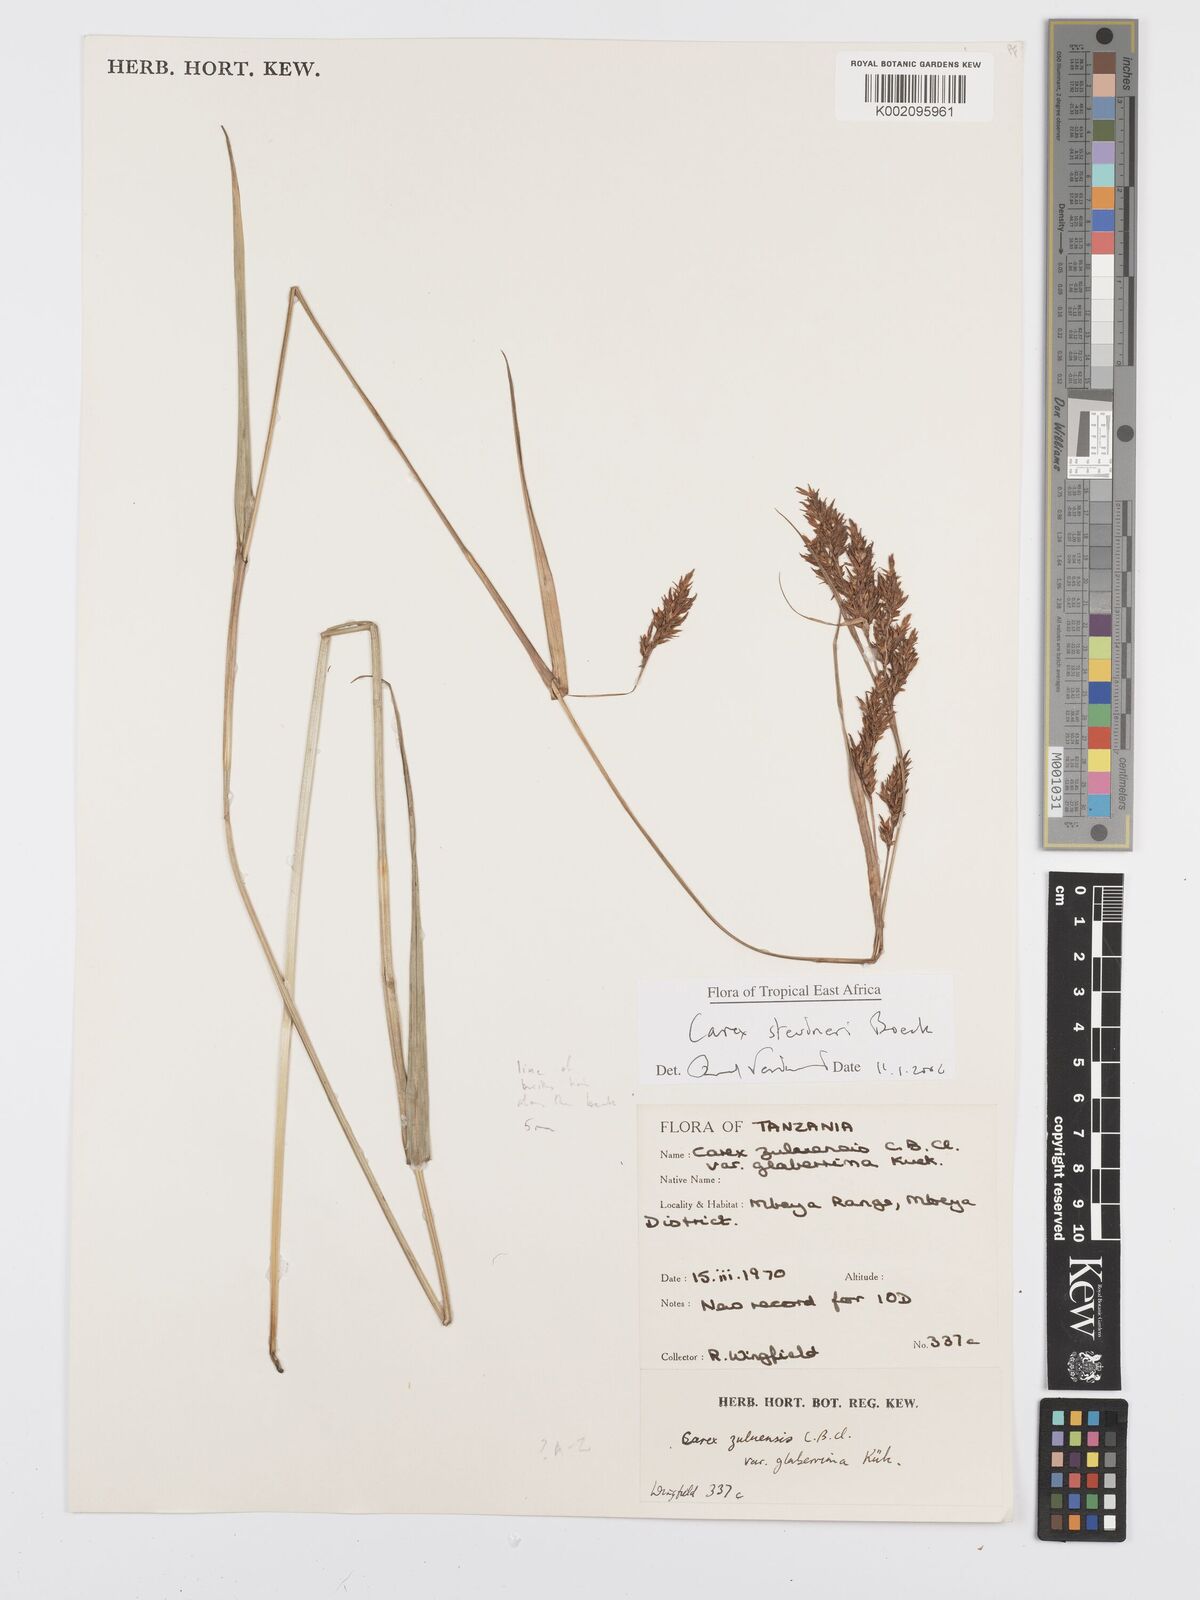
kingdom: Plantae
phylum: Tracheophyta
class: Liliopsida
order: Poales
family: Cyperaceae
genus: Carex
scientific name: Carex steudneri
